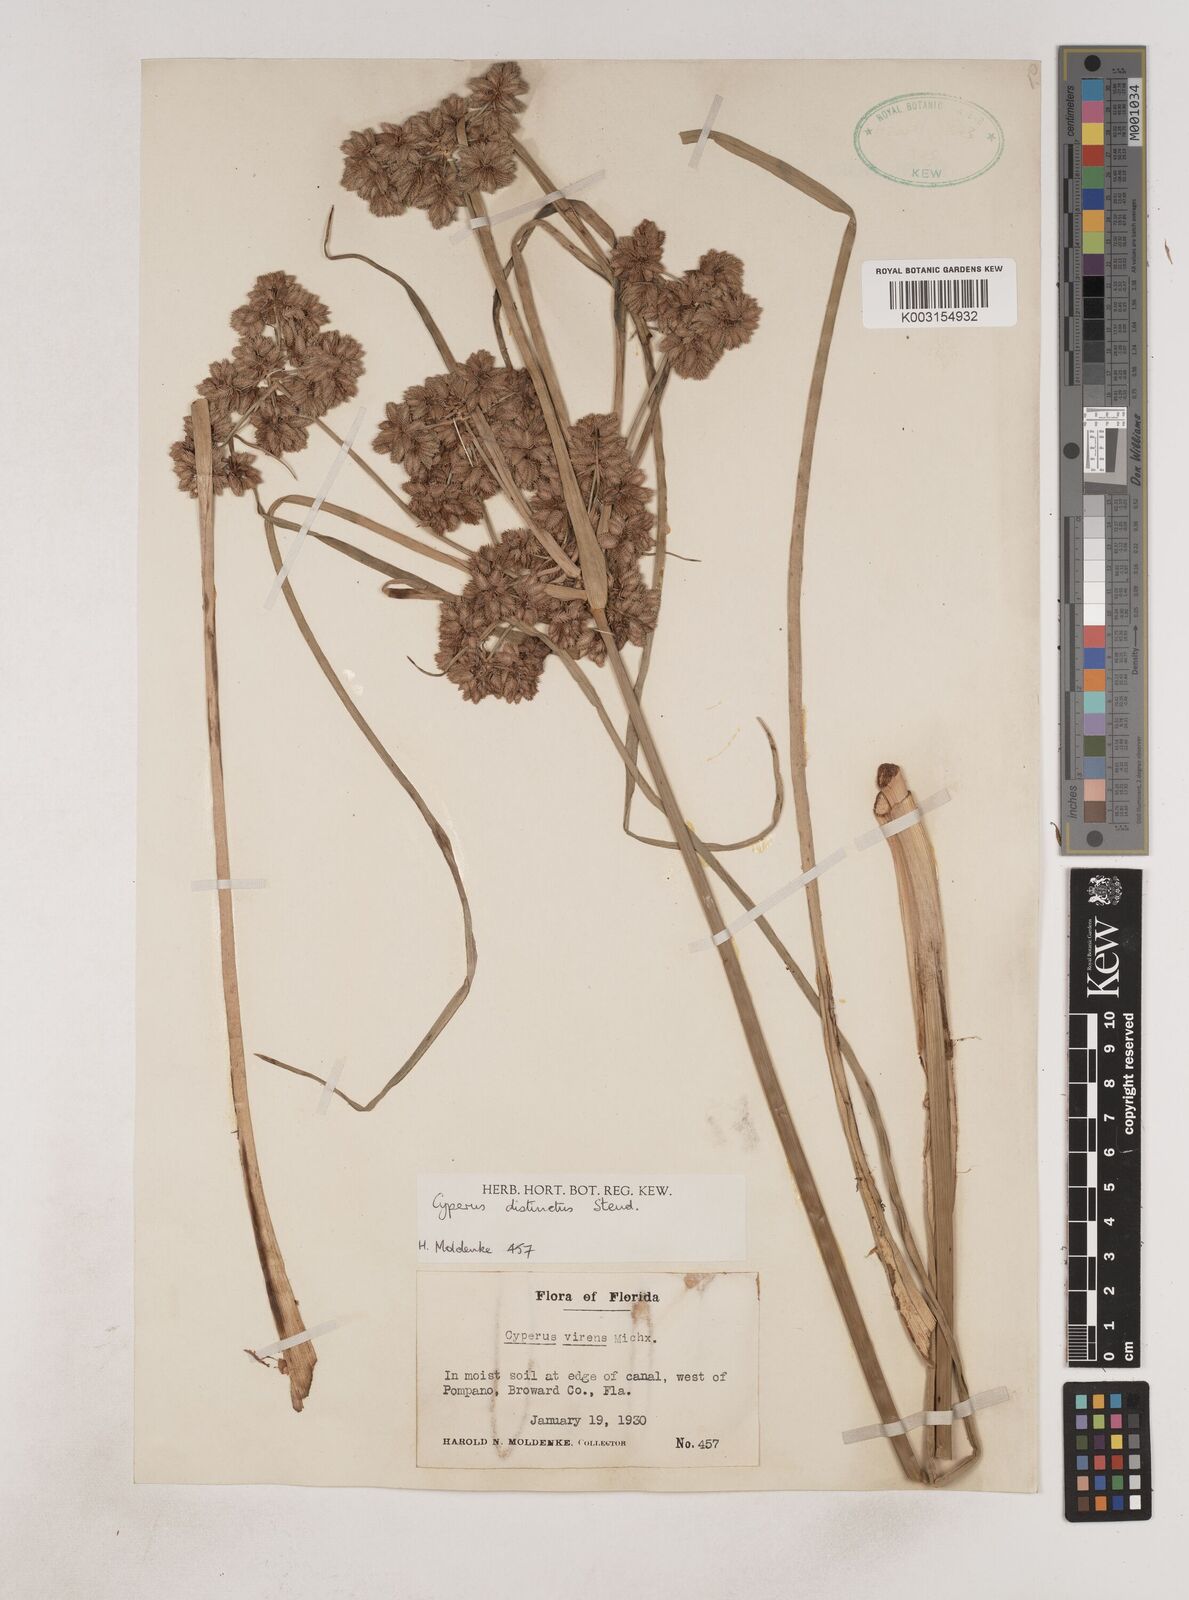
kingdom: Plantae
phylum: Tracheophyta
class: Liliopsida
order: Poales
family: Cyperaceae
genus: Cyperus
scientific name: Cyperus distinctus
